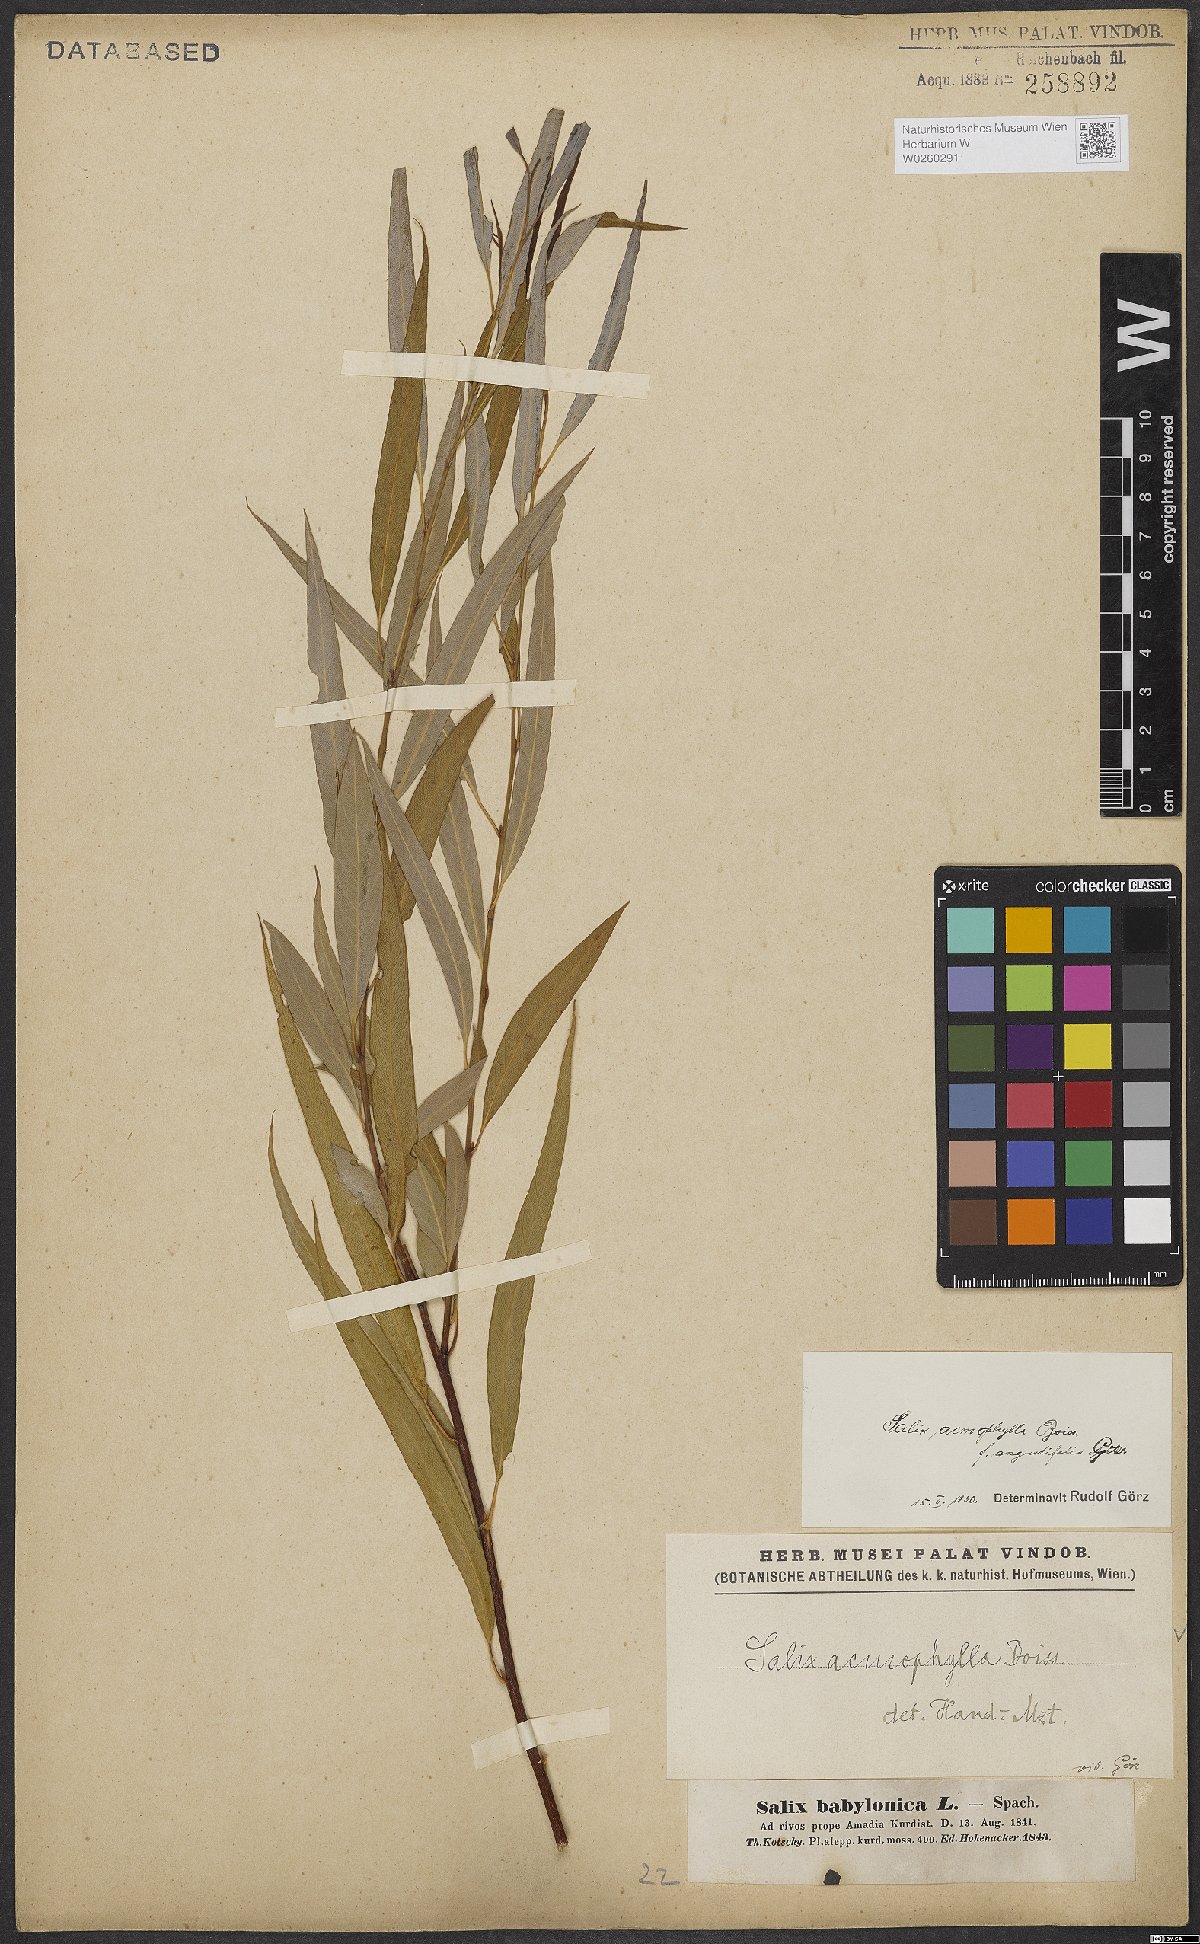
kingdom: Plantae
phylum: Tracheophyta
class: Magnoliopsida
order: Malpighiales
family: Salicaceae
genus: Salix
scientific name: Salix acmophylla
